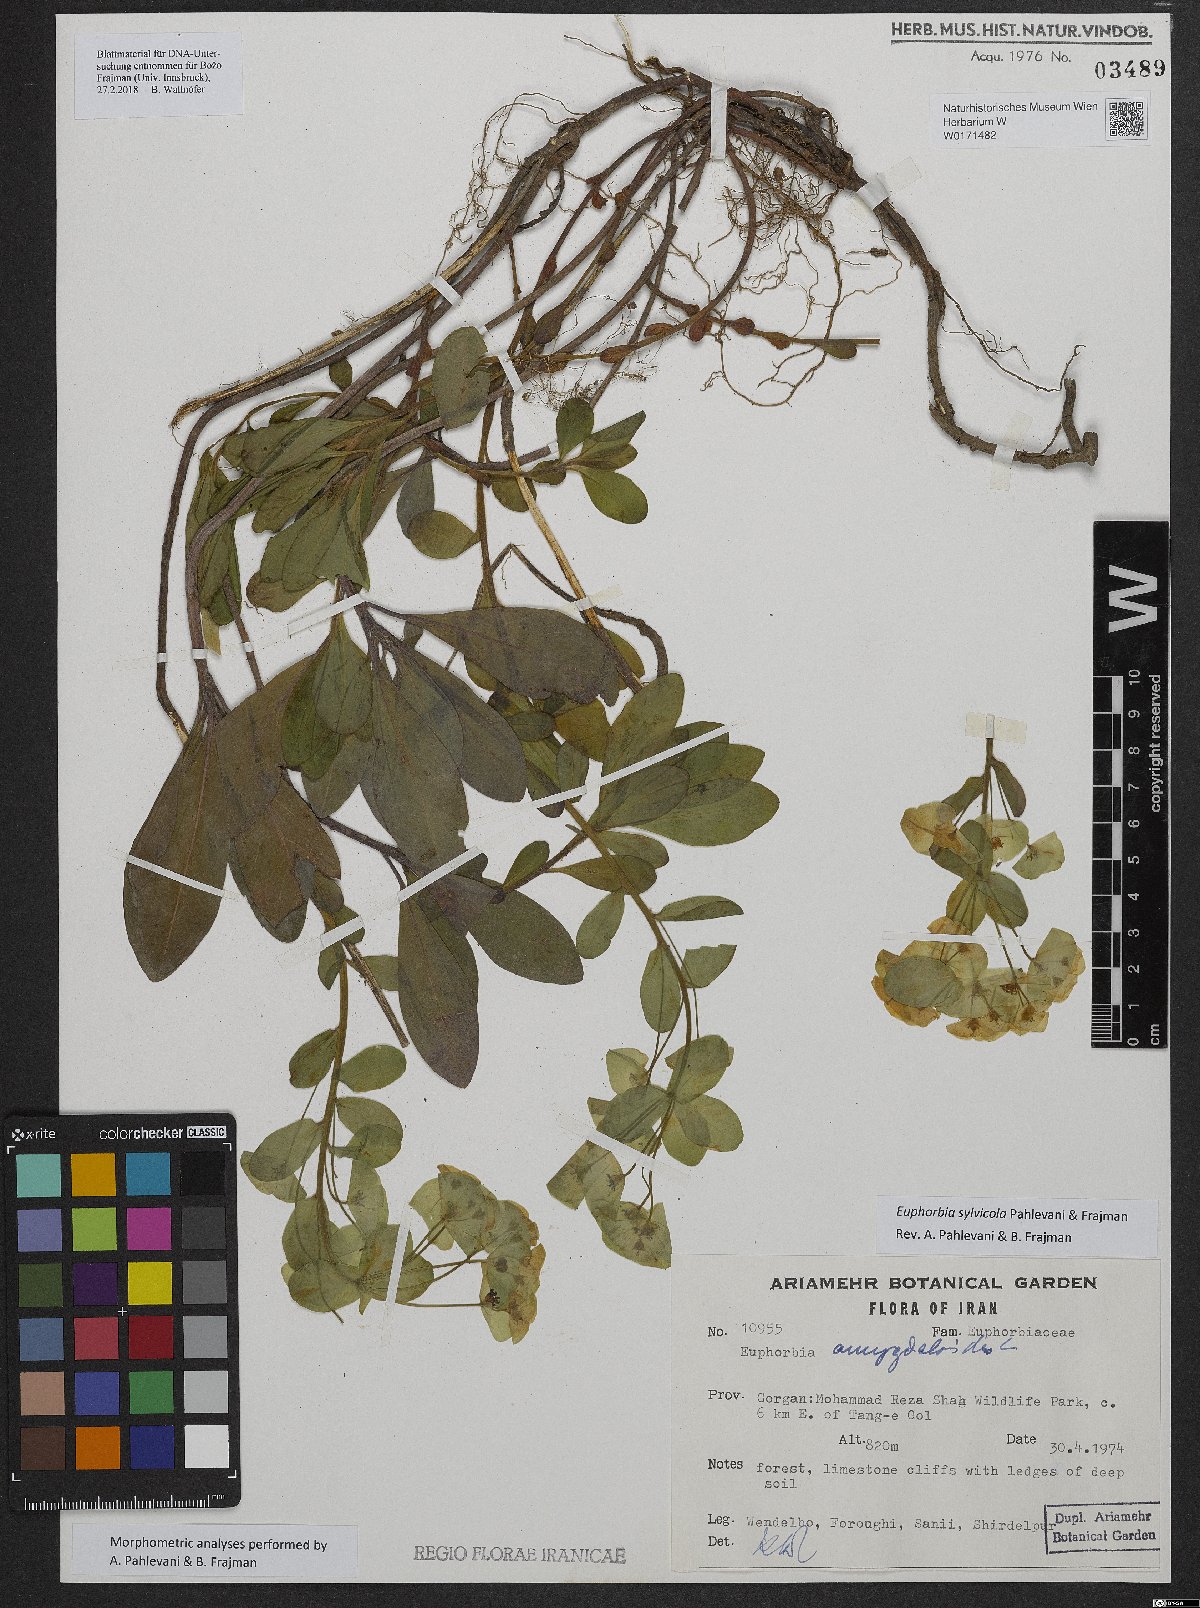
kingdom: Plantae
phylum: Tracheophyta
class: Magnoliopsida
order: Malpighiales
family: Euphorbiaceae
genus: Euphorbia
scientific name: Euphorbia juttae
